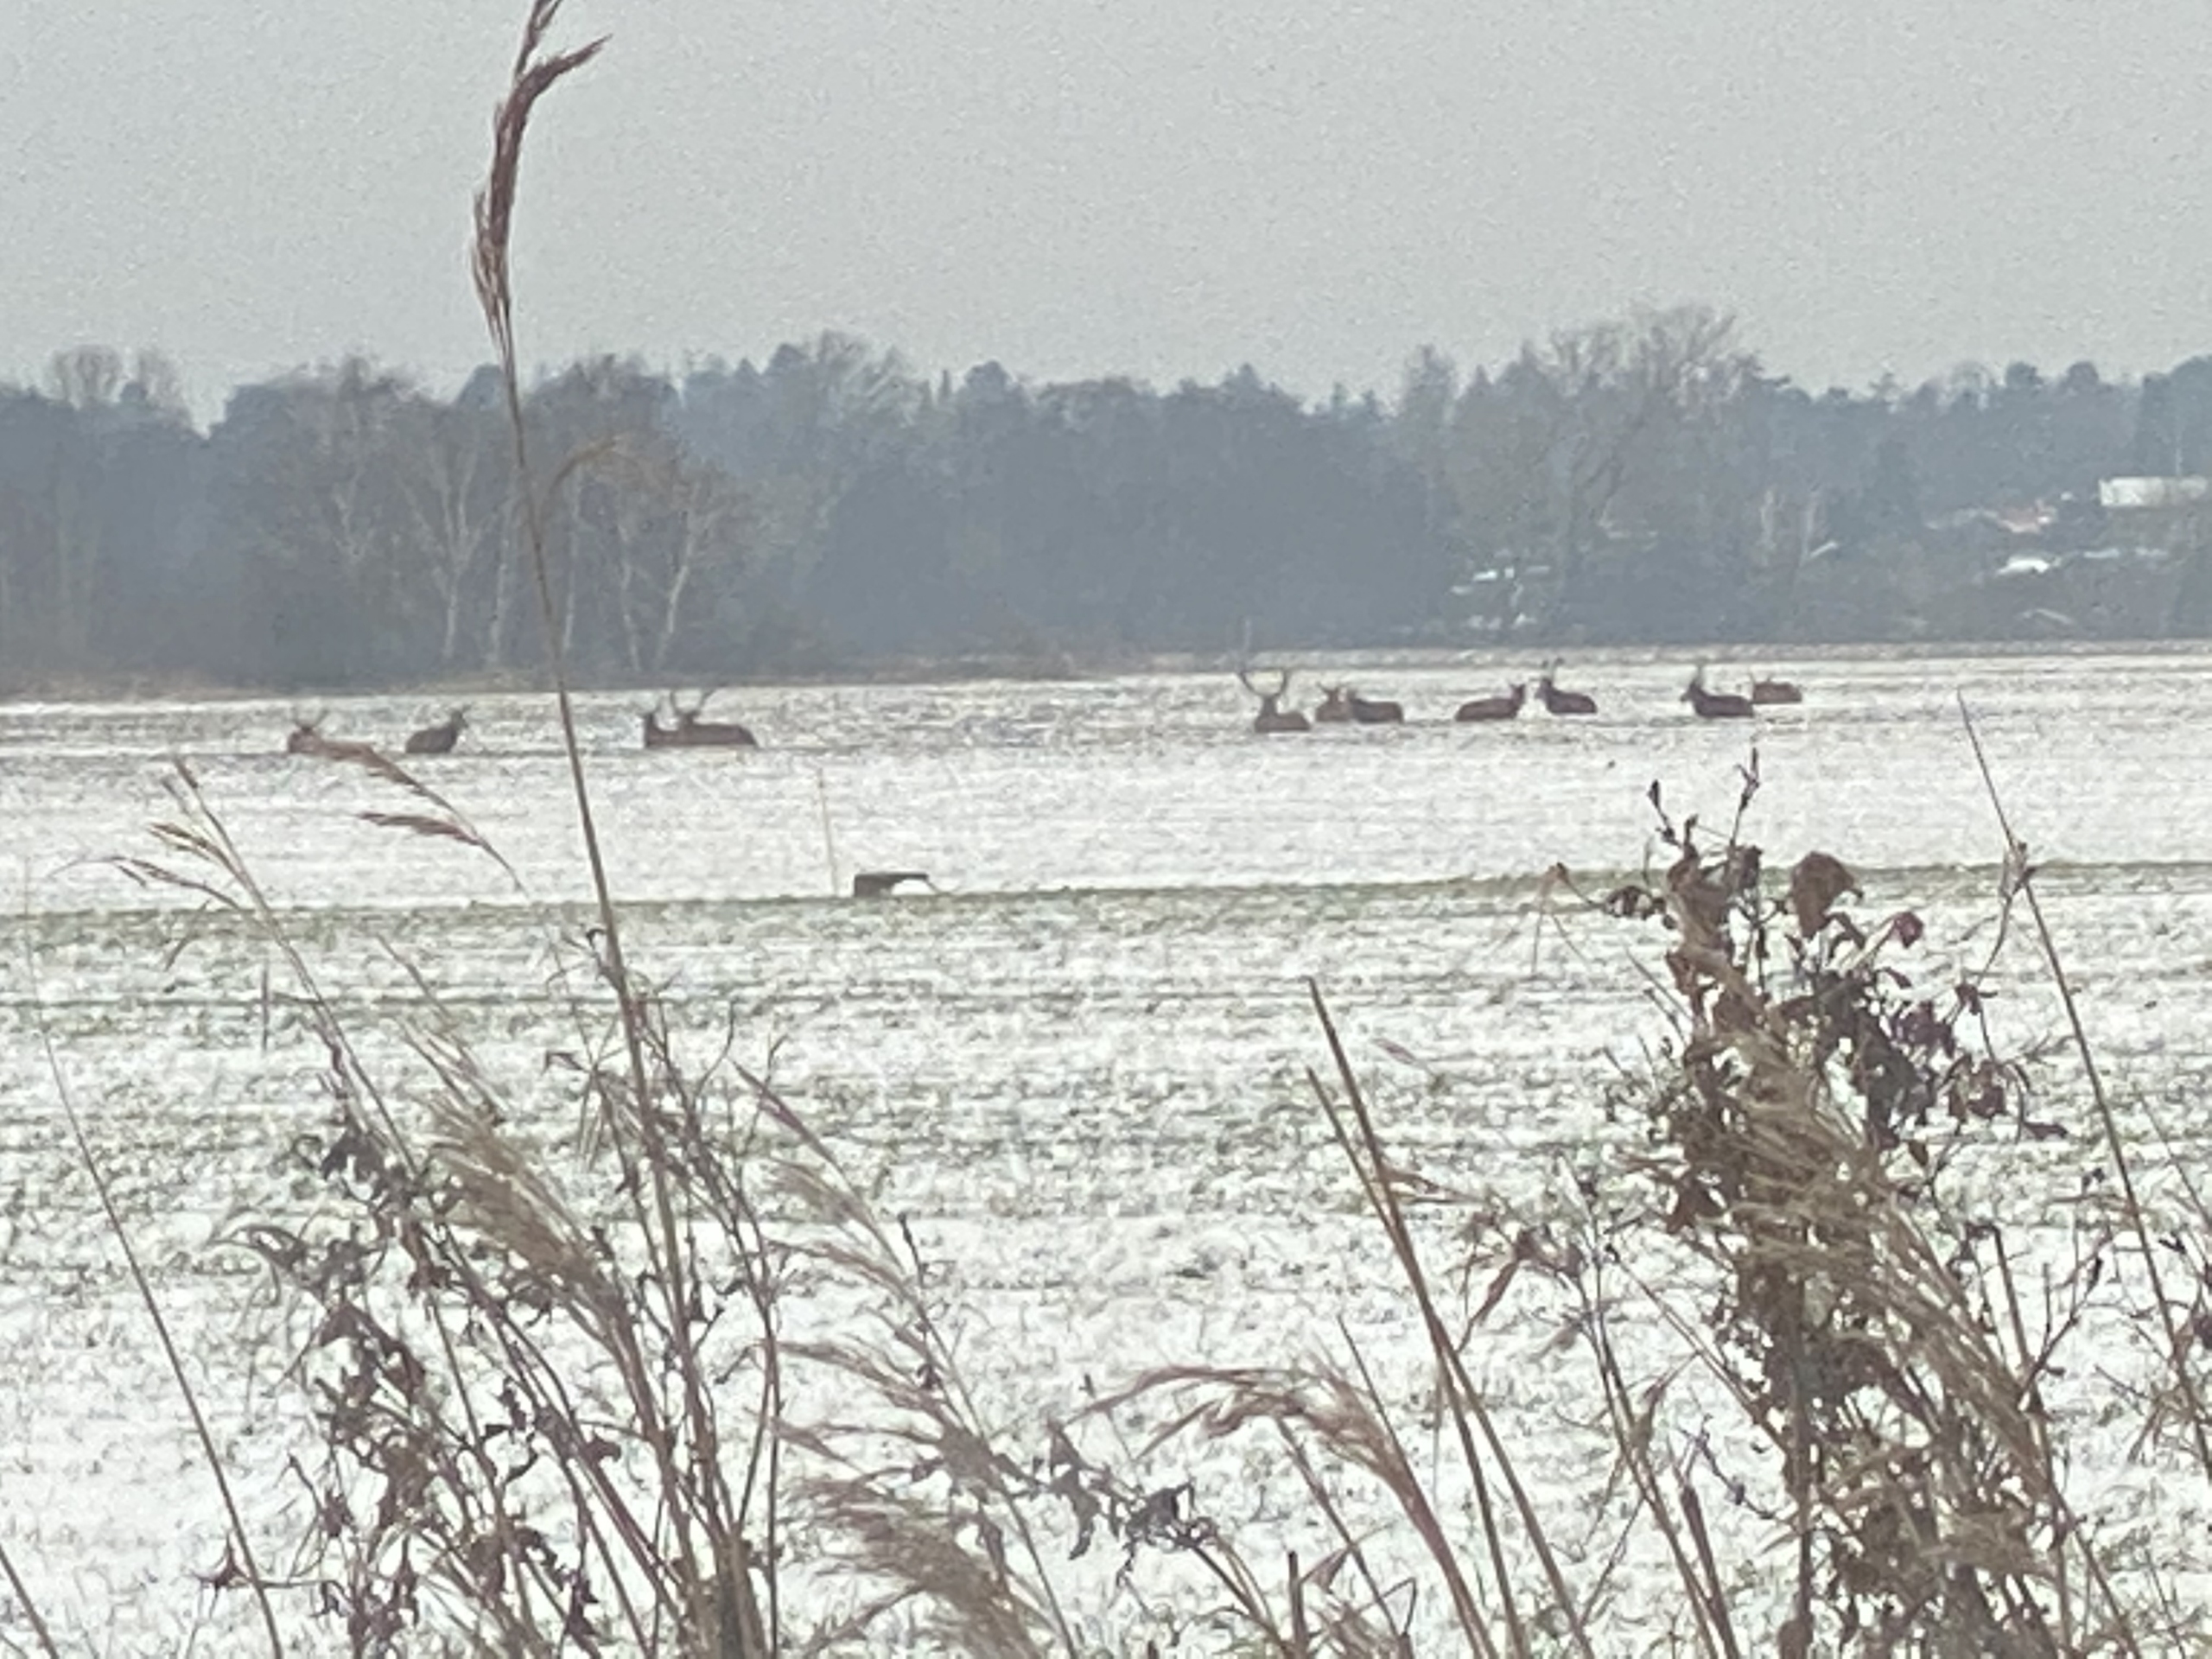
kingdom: Animalia
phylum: Chordata
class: Mammalia
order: Artiodactyla
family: Cervidae
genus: Cervus
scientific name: Cervus elaphus
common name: Krondyr
